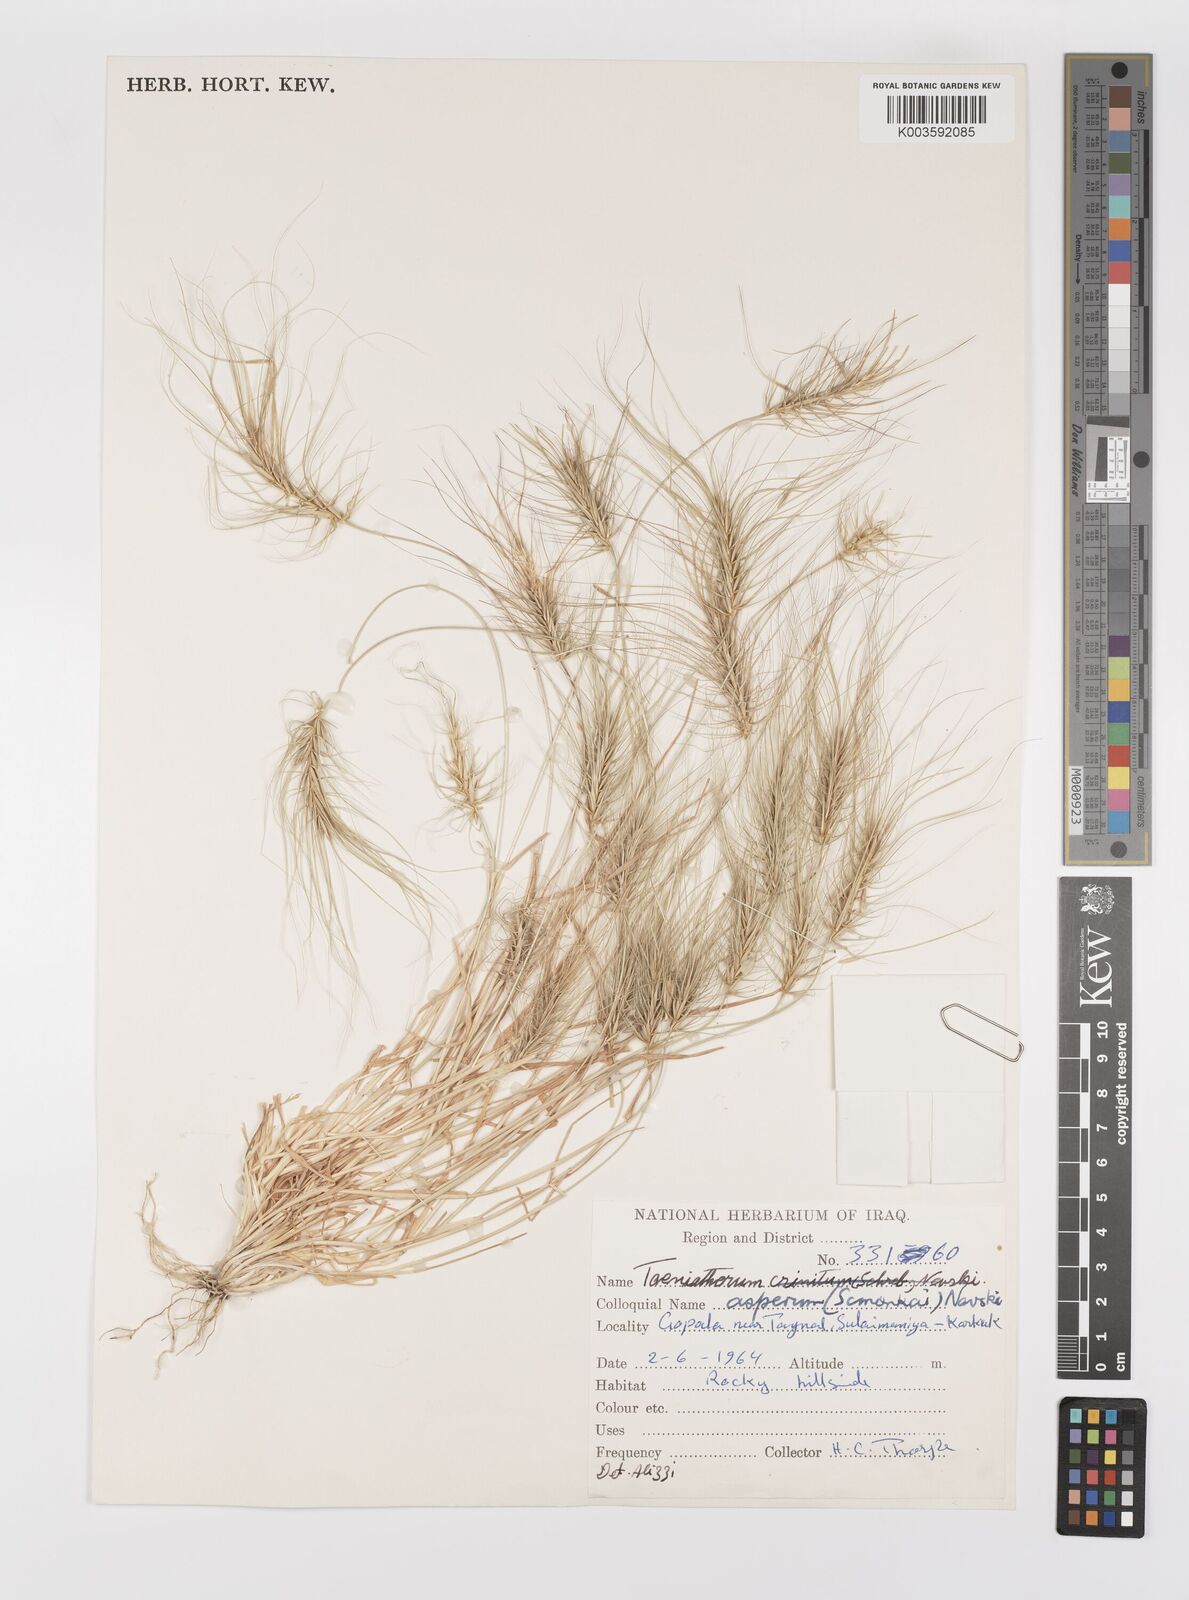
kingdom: Plantae
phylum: Tracheophyta
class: Liliopsida
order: Poales
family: Poaceae
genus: Taeniatherum
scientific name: Taeniatherum caput-medusae
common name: Medusahead
